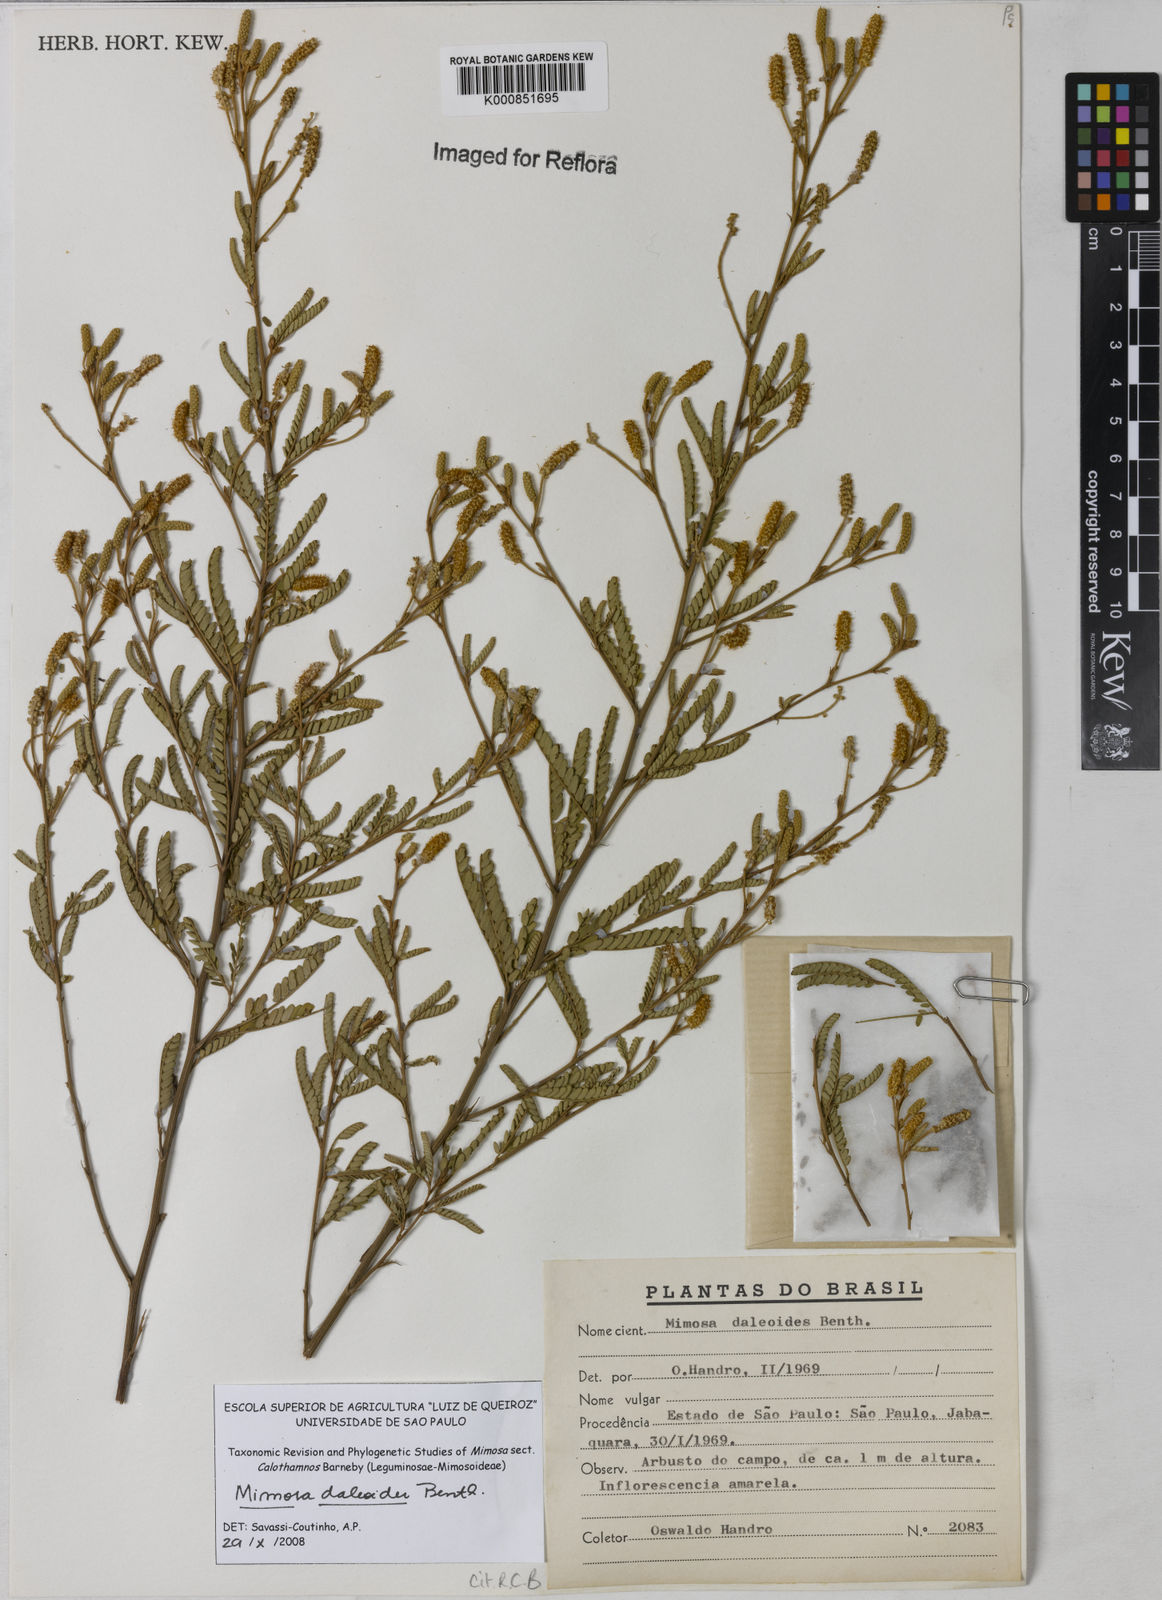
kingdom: Plantae
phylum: Tracheophyta
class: Magnoliopsida
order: Fabales
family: Fabaceae
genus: Mimosa
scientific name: Mimosa daleoides
